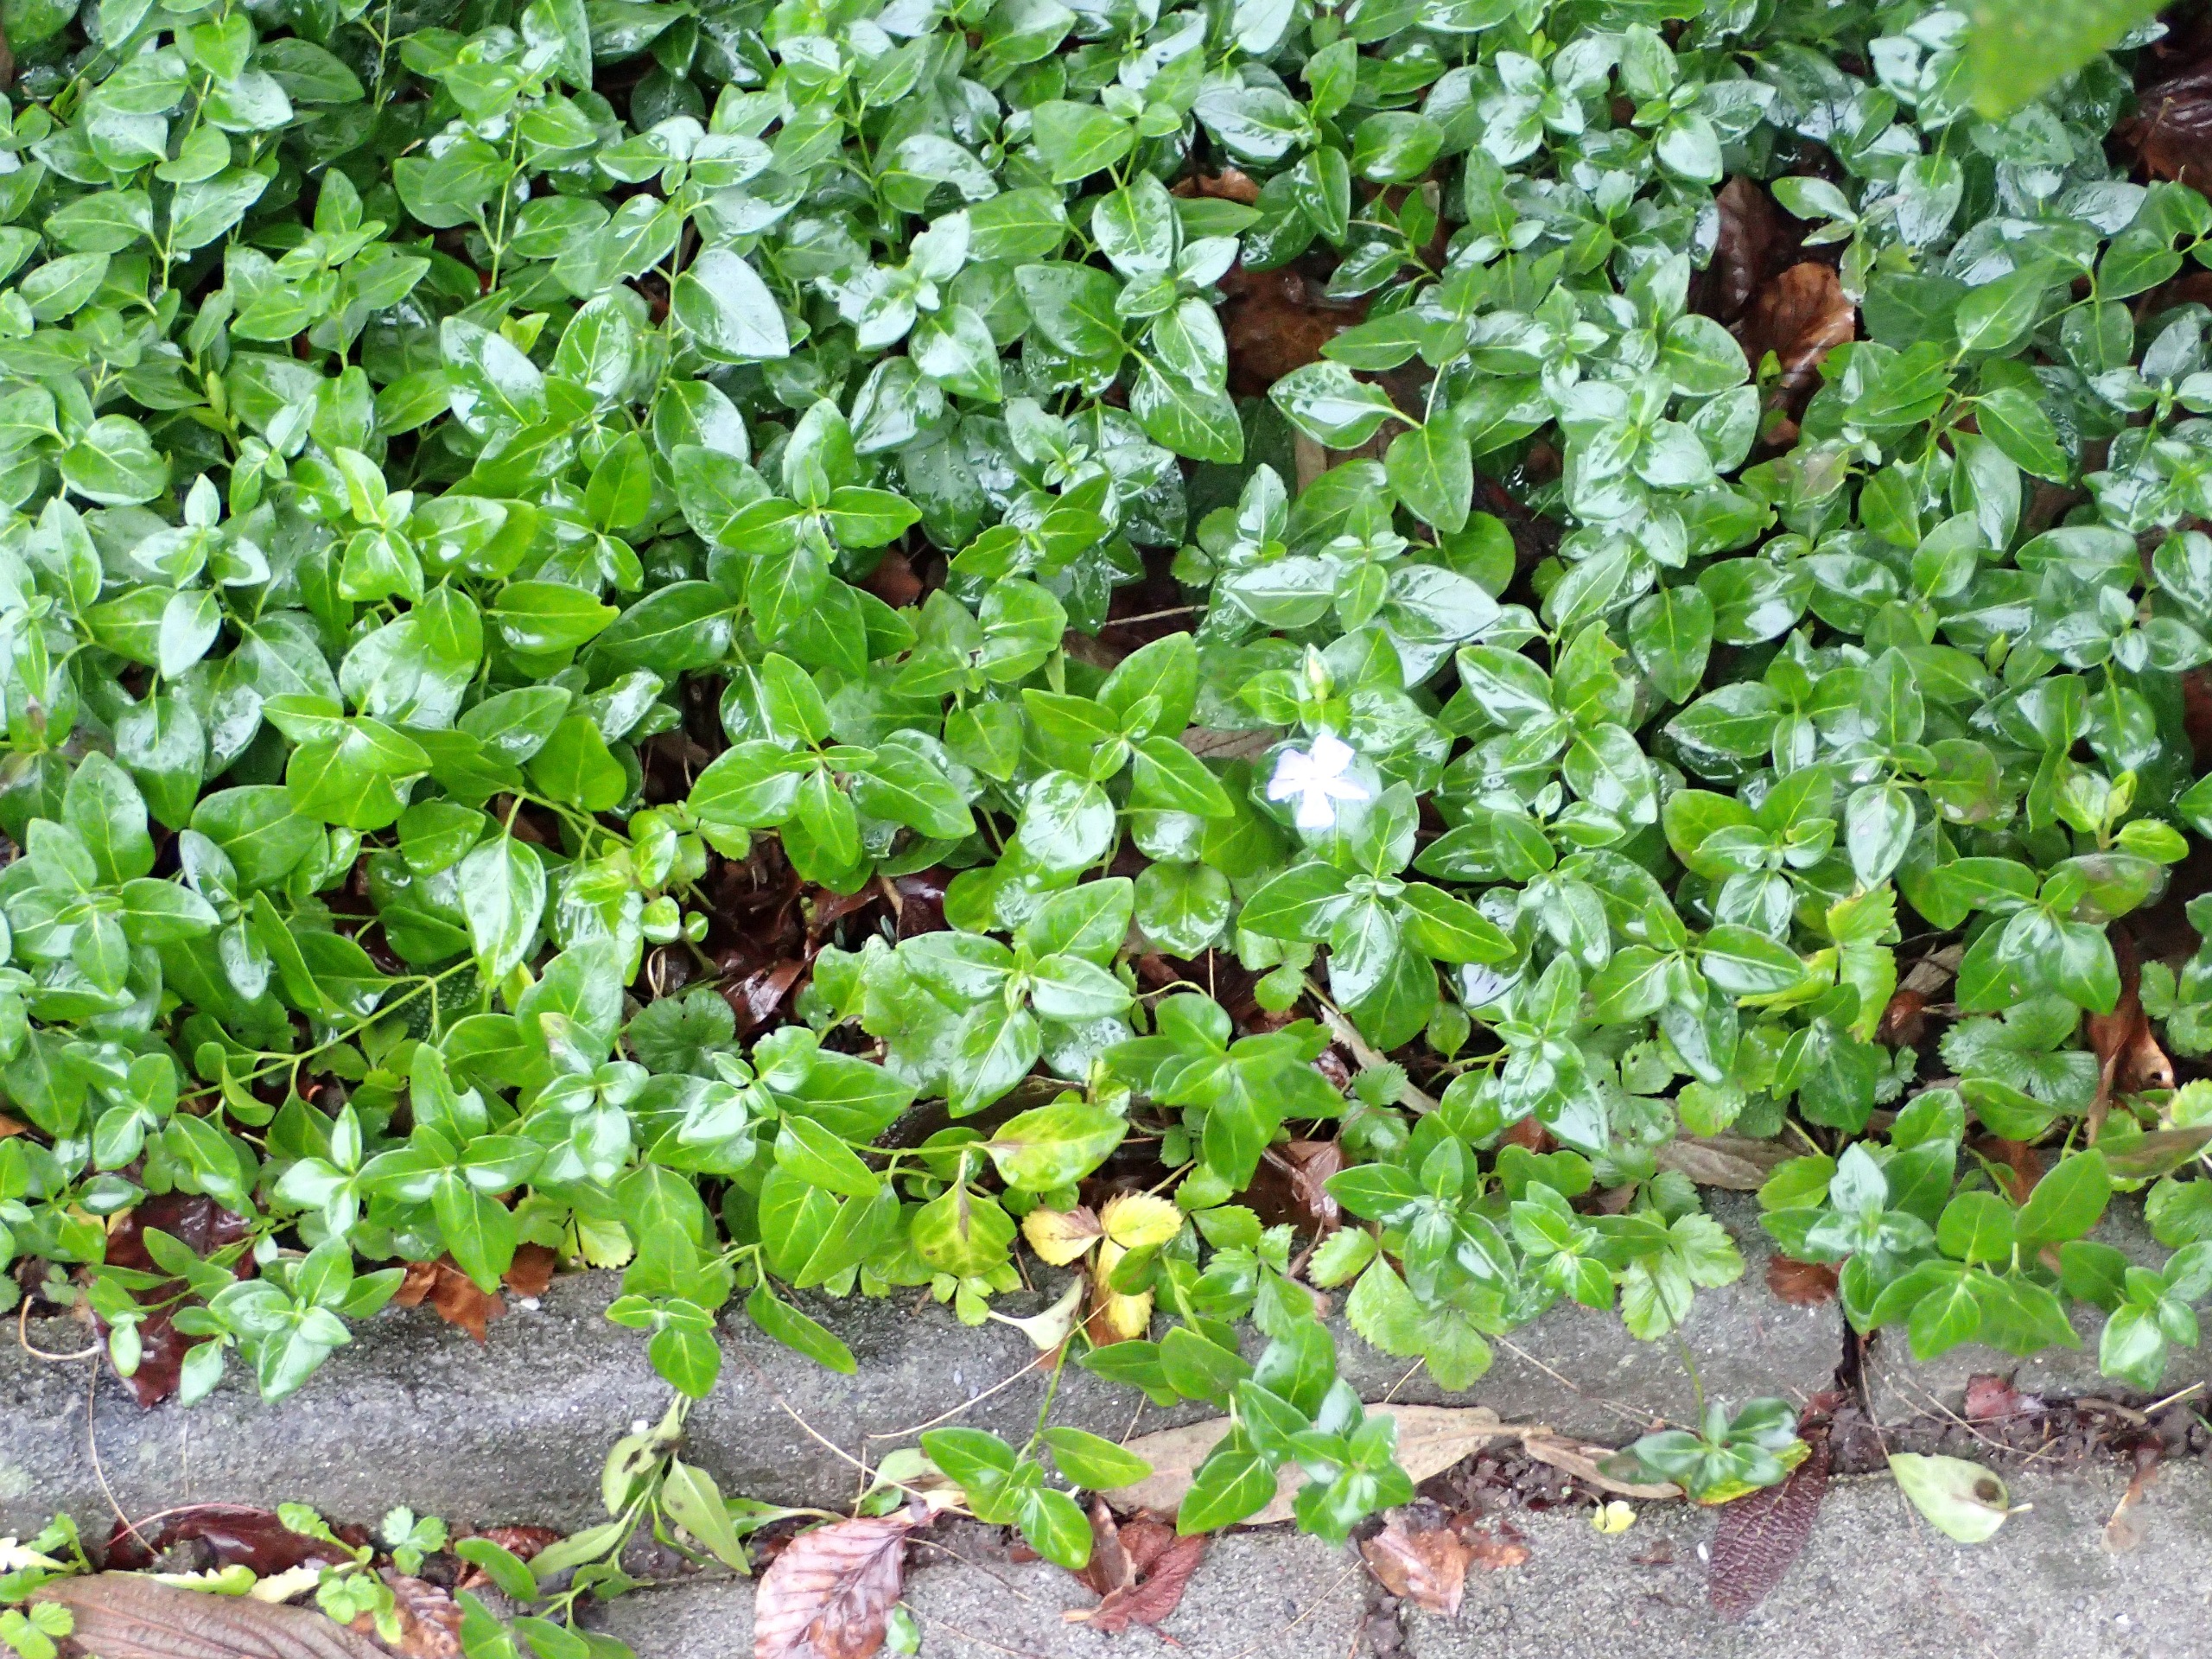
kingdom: Plantae
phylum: Tracheophyta
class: Magnoliopsida
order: Gentianales
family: Apocynaceae
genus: Vinca
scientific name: Vinca major
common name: Stor singrøn
